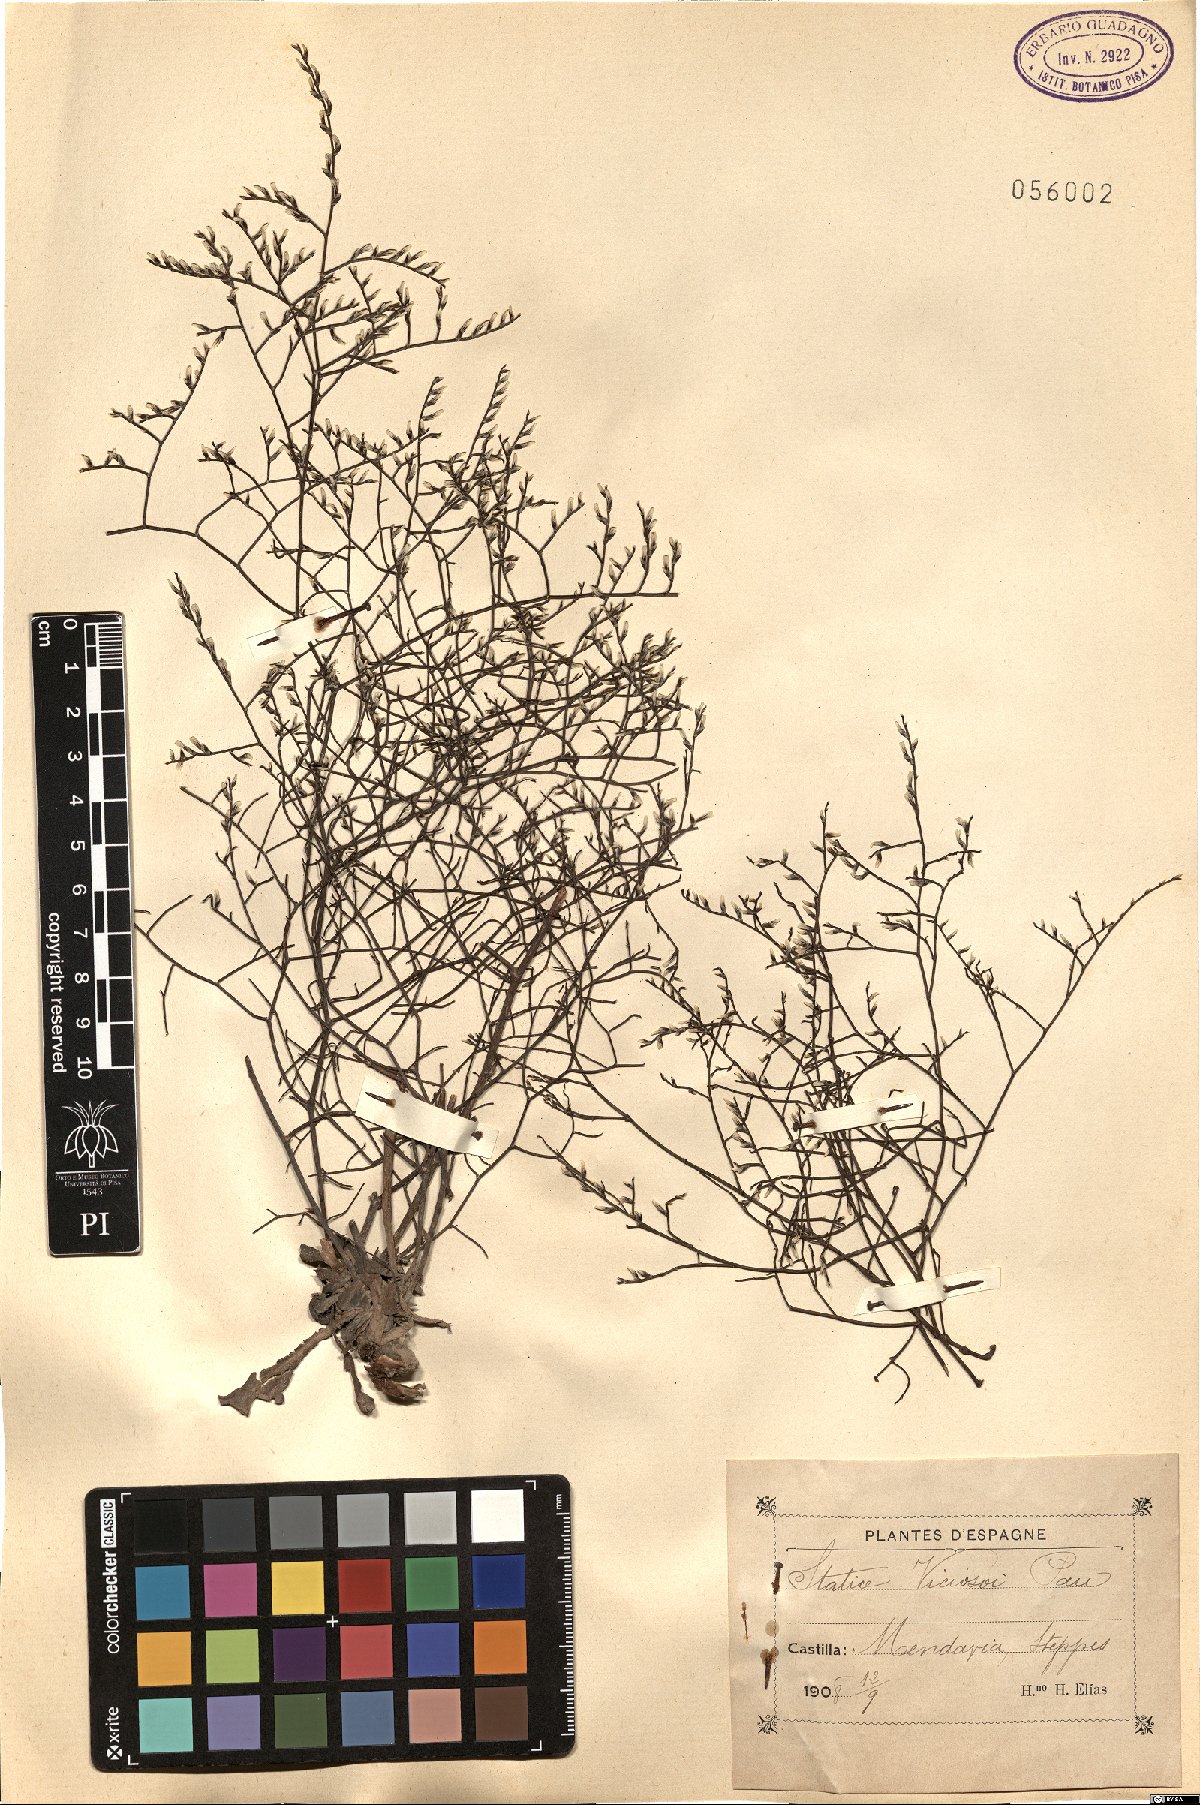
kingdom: Plantae
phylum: Tracheophyta
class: Magnoliopsida
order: Caryophyllales
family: Plumbaginaceae
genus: Limonium
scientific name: Limonium viciosoi
